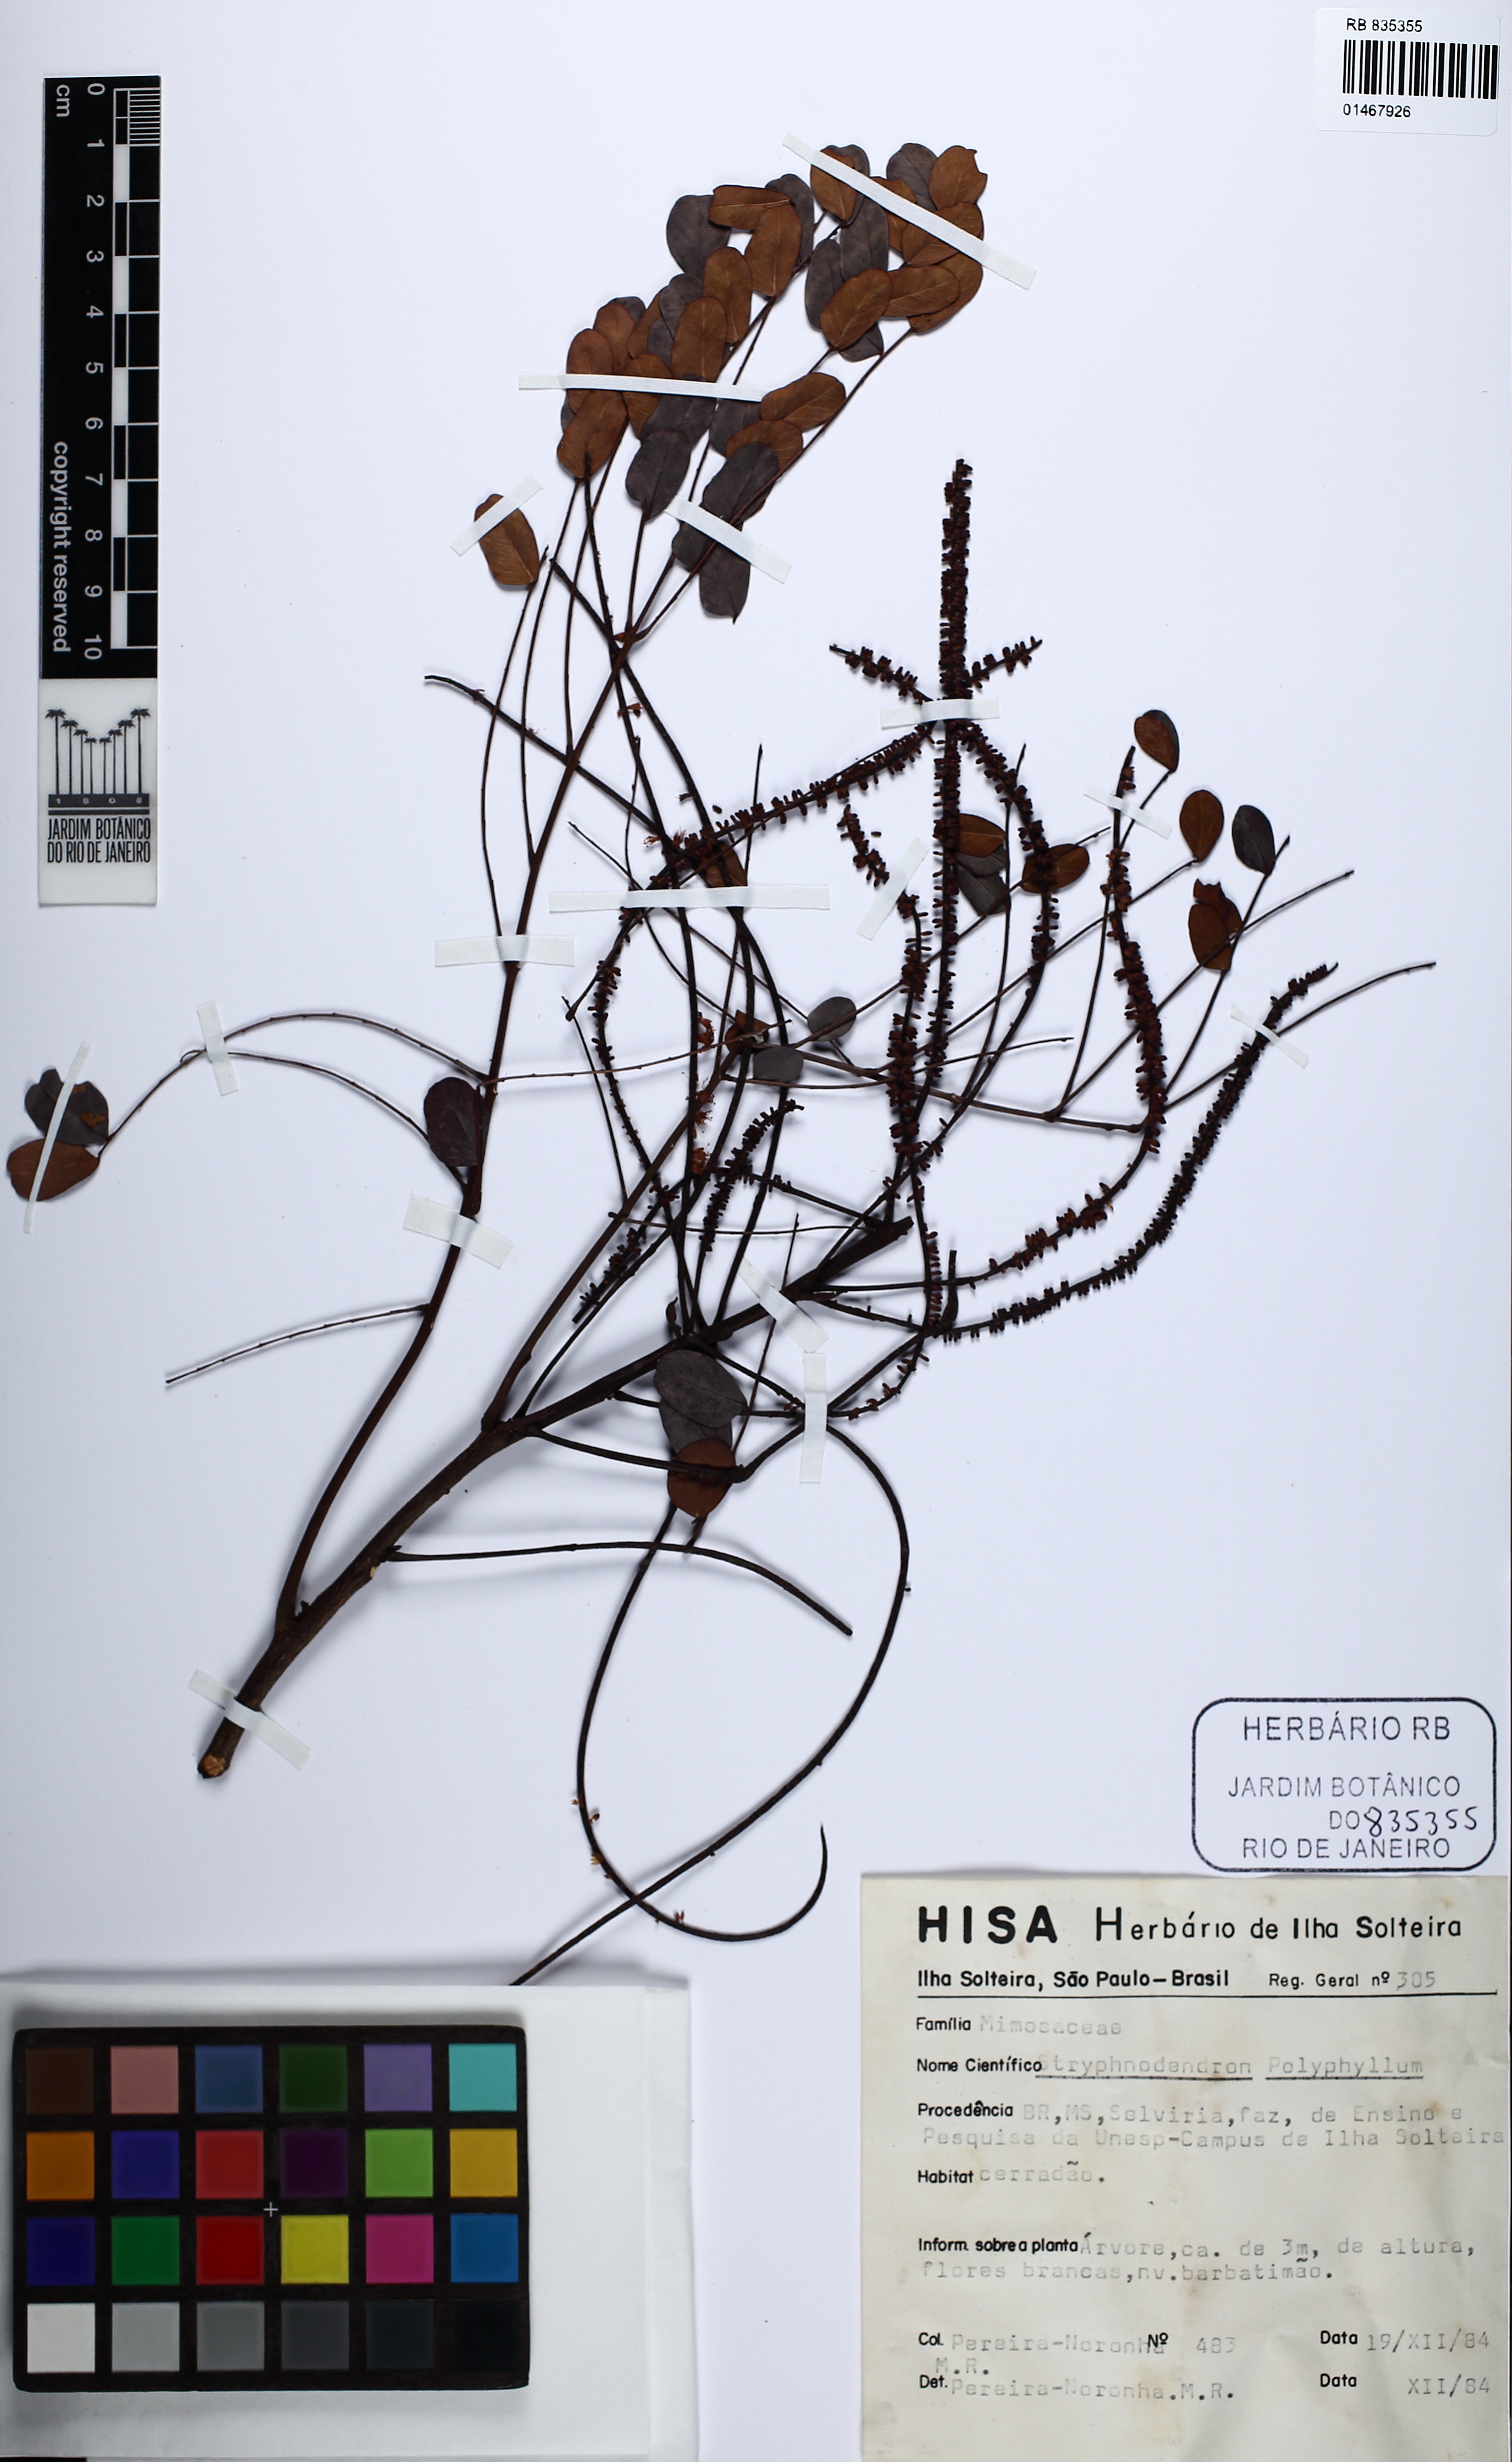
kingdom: Plantae
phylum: Tracheophyta
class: Magnoliopsida
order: Fabales
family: Fabaceae
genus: Stryphnodendron
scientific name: Stryphnodendron polyphyllum
